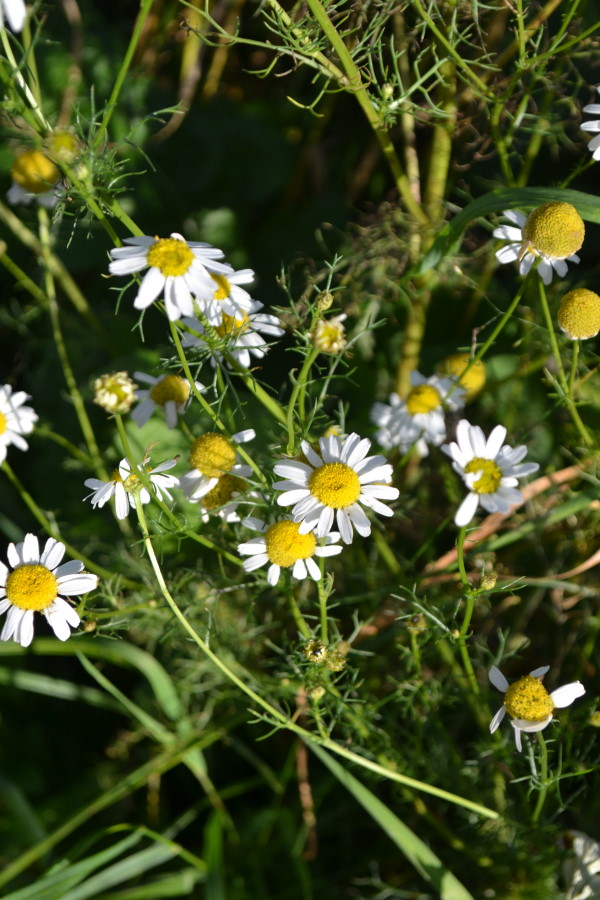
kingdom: Plantae
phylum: Tracheophyta
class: Magnoliopsida
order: Asterales
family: Asteraceae
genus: Tripleurospermum
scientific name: Tripleurospermum inodorum
